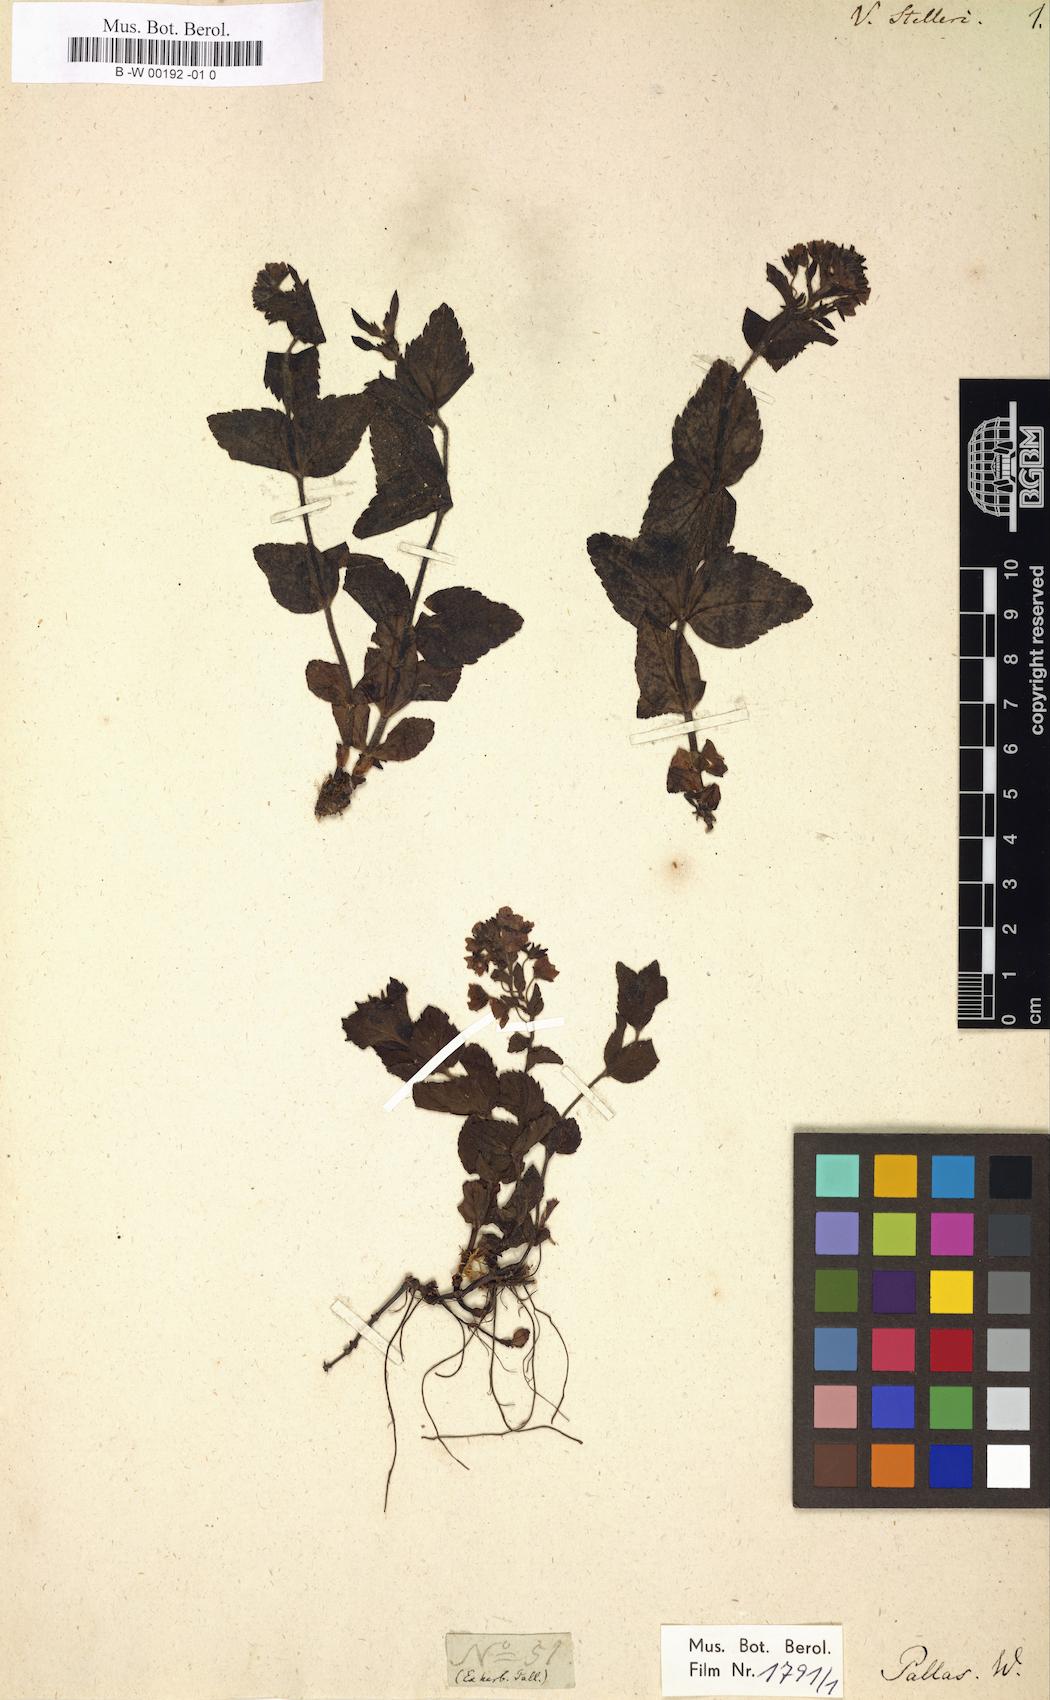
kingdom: Plantae
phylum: Tracheophyta
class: Magnoliopsida
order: Lamiales
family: Plantaginaceae
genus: Veronica
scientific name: Veronica stelleri
